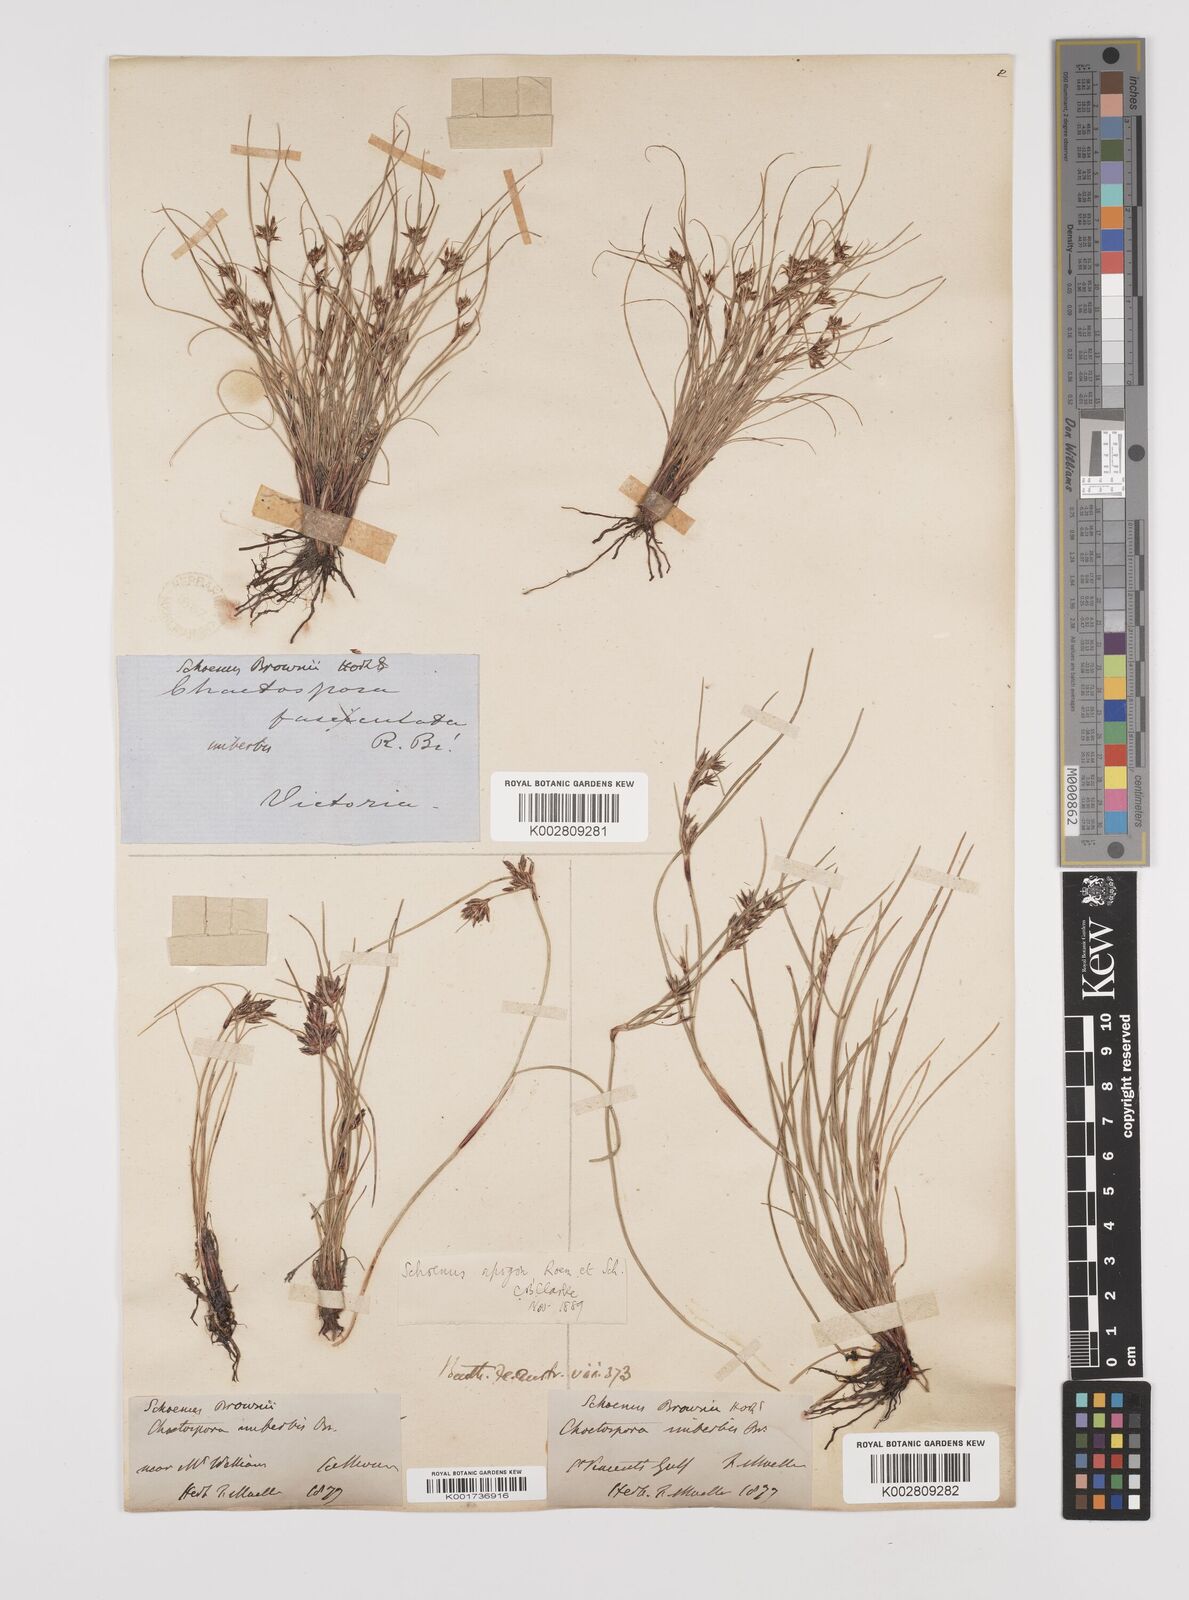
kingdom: Plantae
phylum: Tracheophyta
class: Liliopsida
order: Poales
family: Cyperaceae
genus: Schoenus
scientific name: Schoenus apogon
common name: Smooth bogrush
